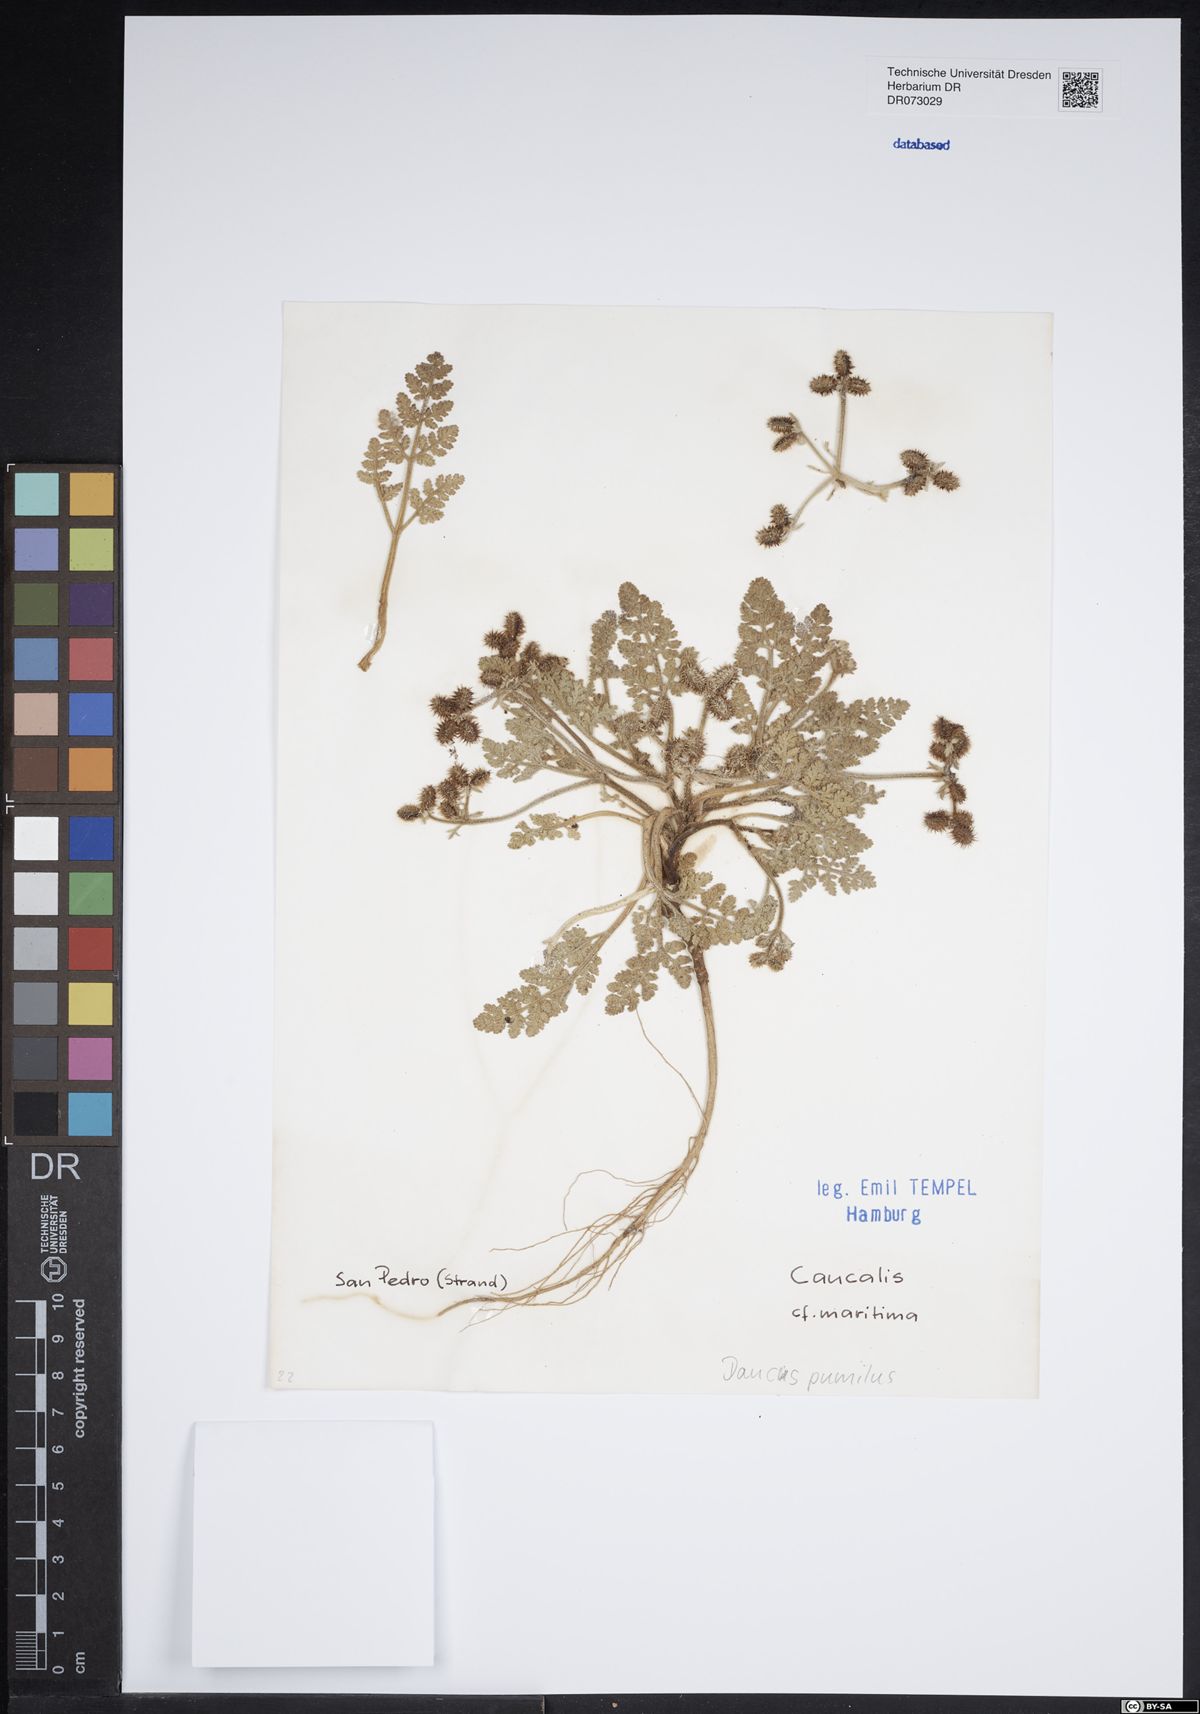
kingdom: Plantae
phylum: Tracheophyta
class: Magnoliopsida
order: Apiales
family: Apiaceae
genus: Pastinaca
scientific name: Pastinaca sativa
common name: Wild parsnip
